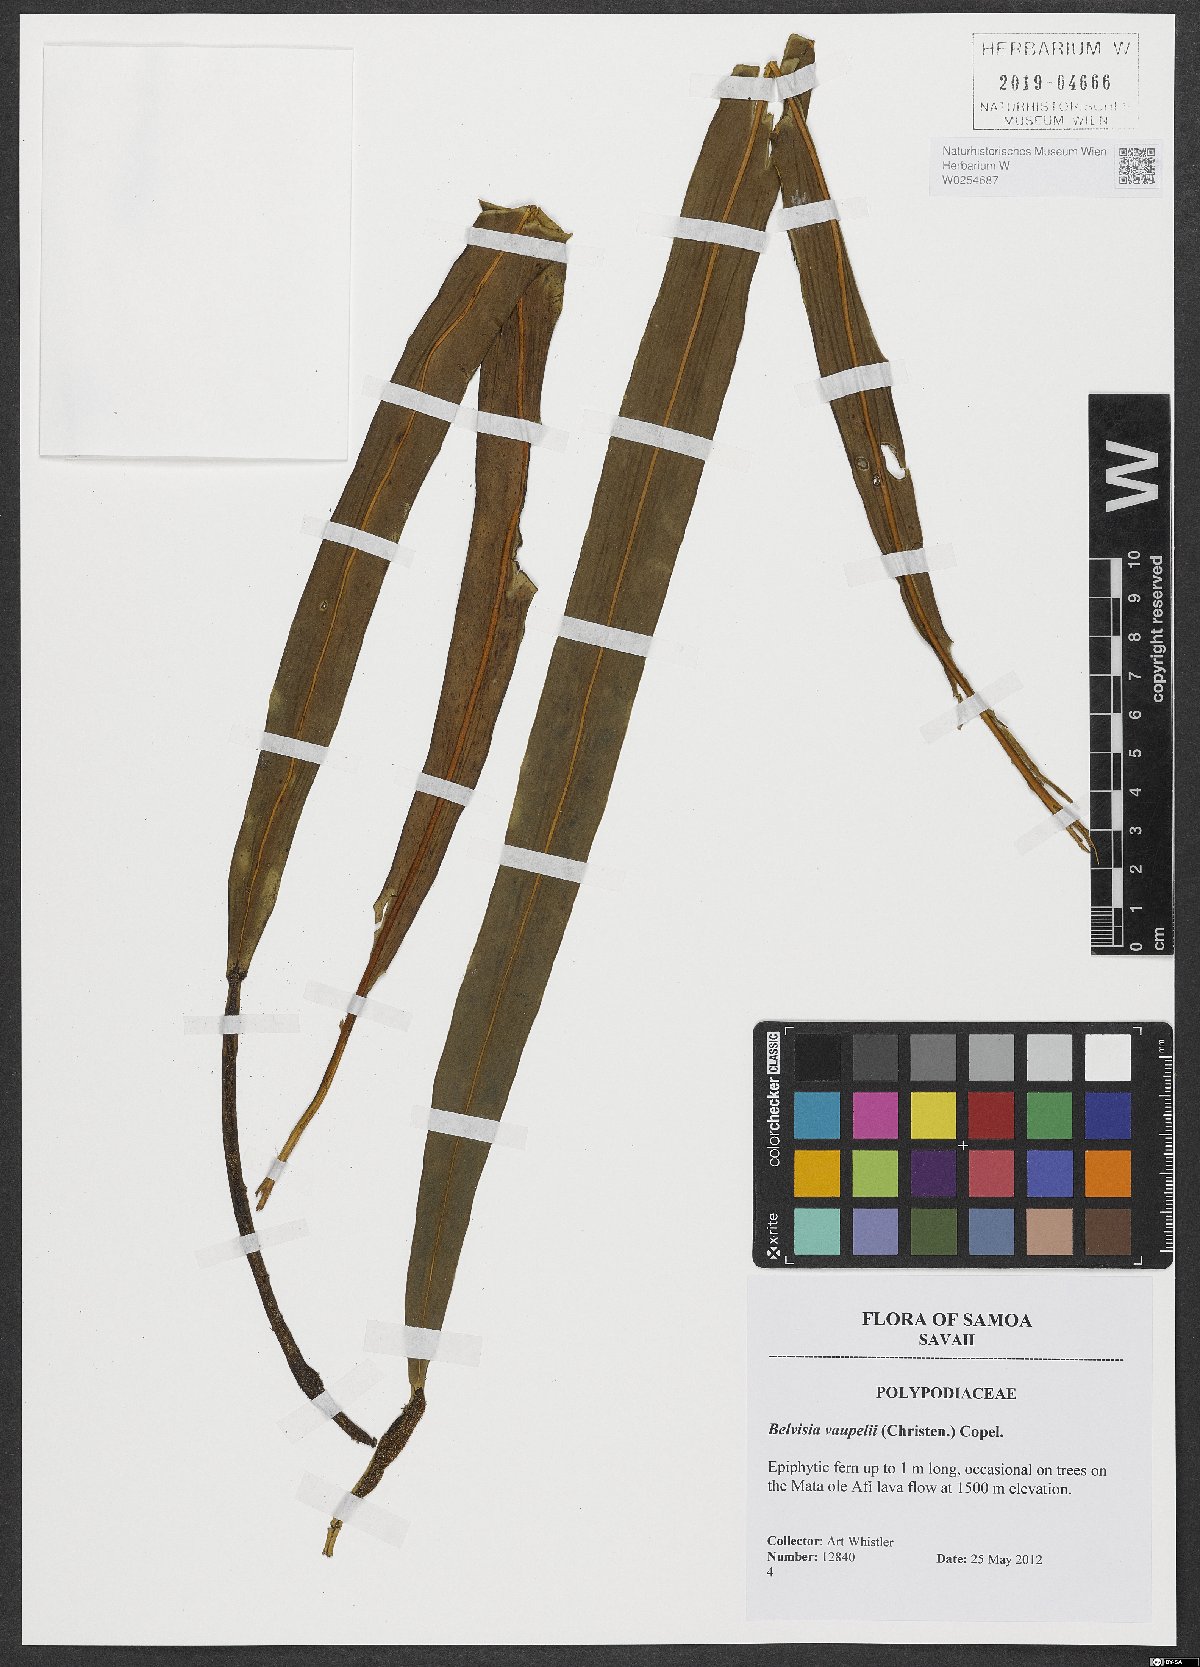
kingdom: Plantae
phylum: Tracheophyta
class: Polypodiopsida
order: Polypodiales
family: Polypodiaceae
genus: Lepisorus
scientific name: Lepisorus mucronatus
